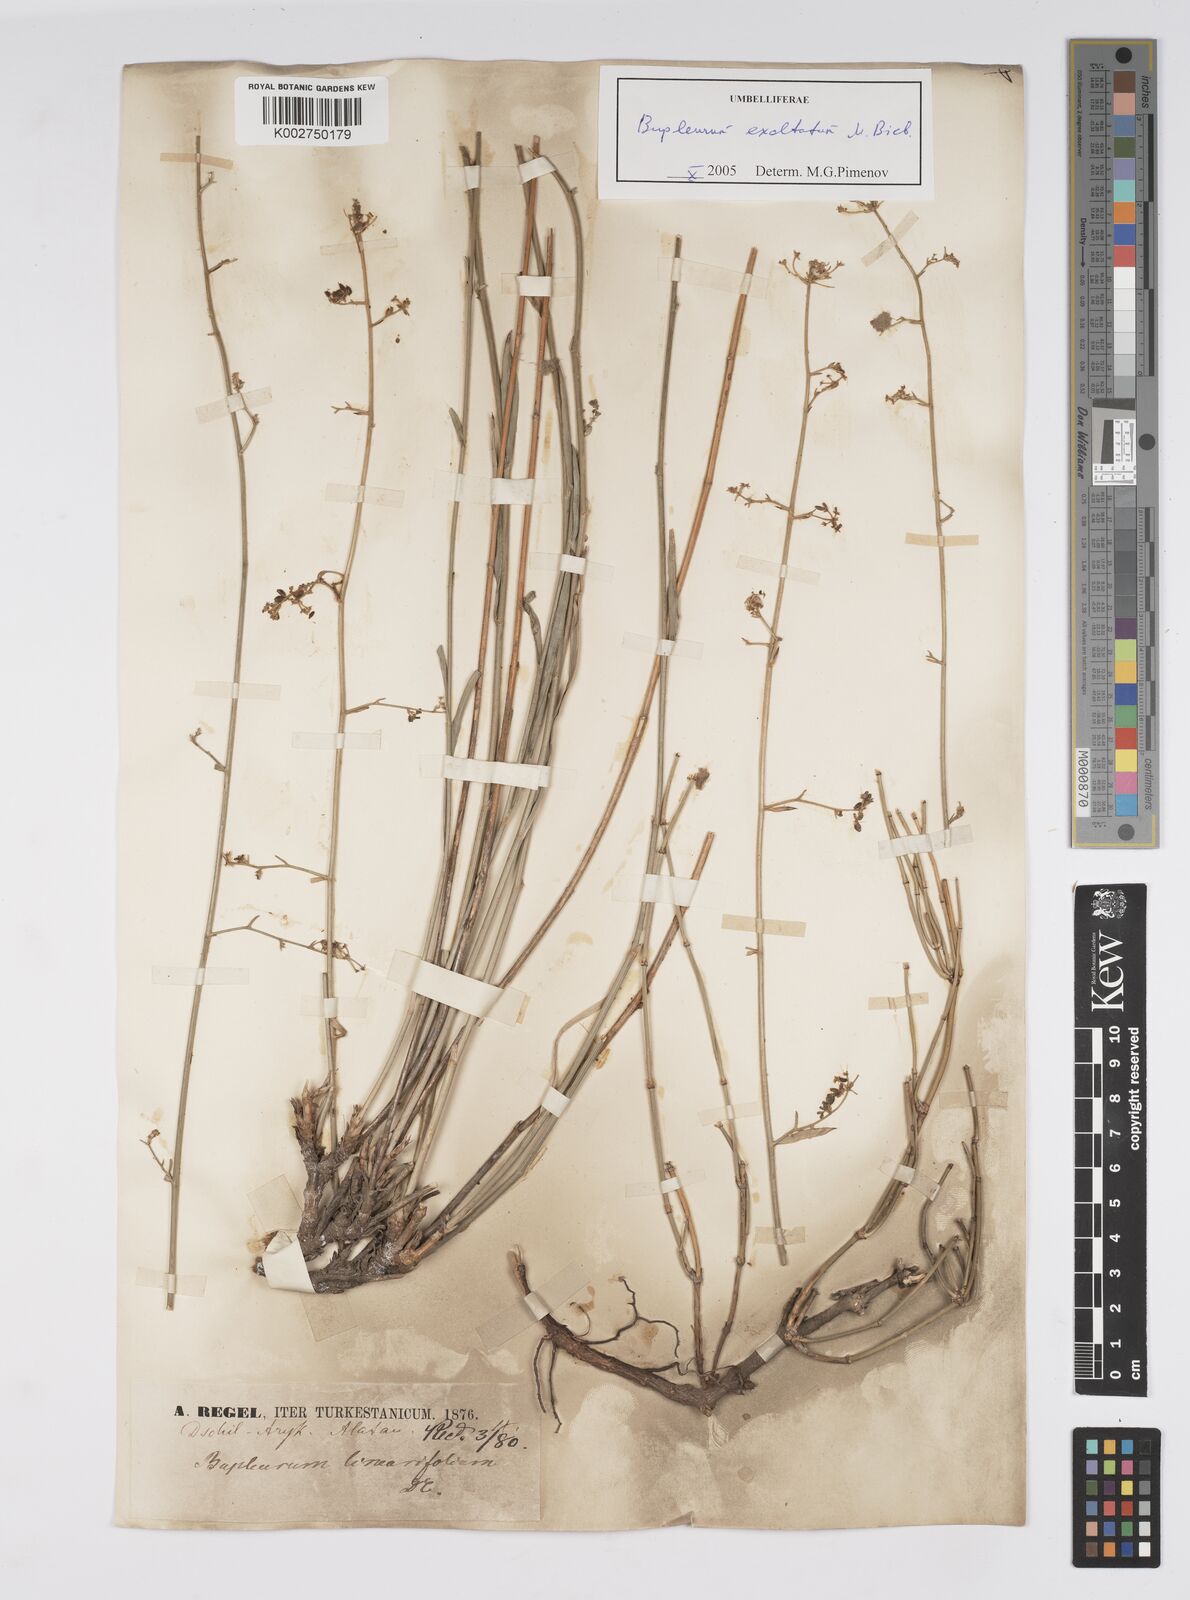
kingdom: Plantae
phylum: Tracheophyta
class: Magnoliopsida
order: Apiales
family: Apiaceae
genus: Bupleurum
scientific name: Bupleurum falcatum
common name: Sickle-leaved hare's-ear
